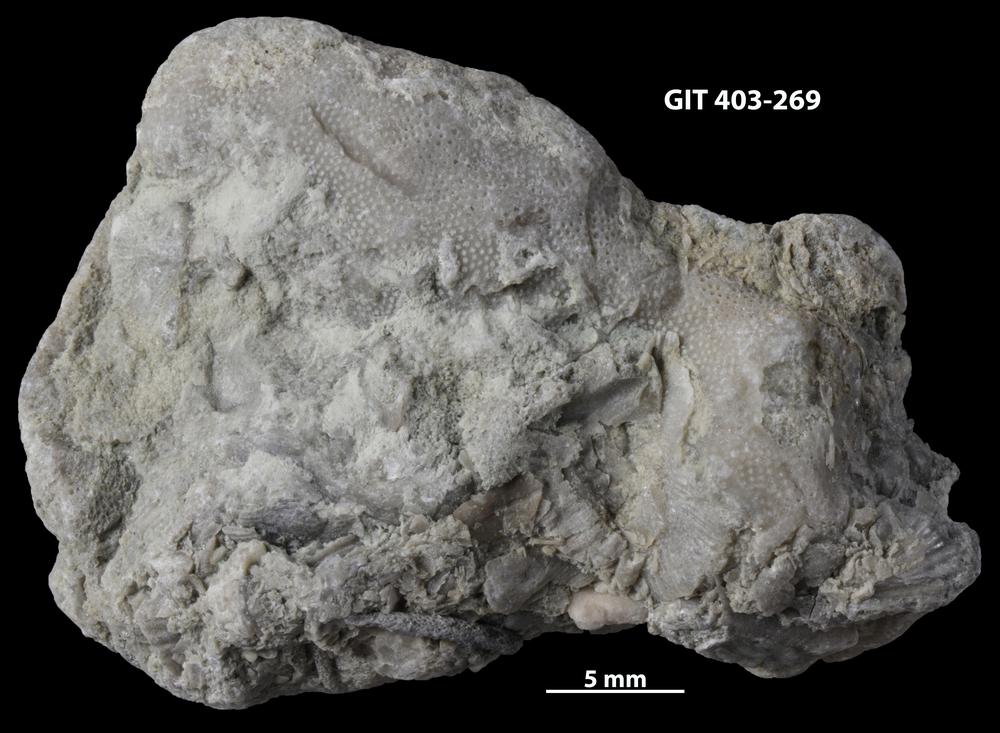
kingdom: Animalia
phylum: Bryozoa
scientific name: Bryozoa
